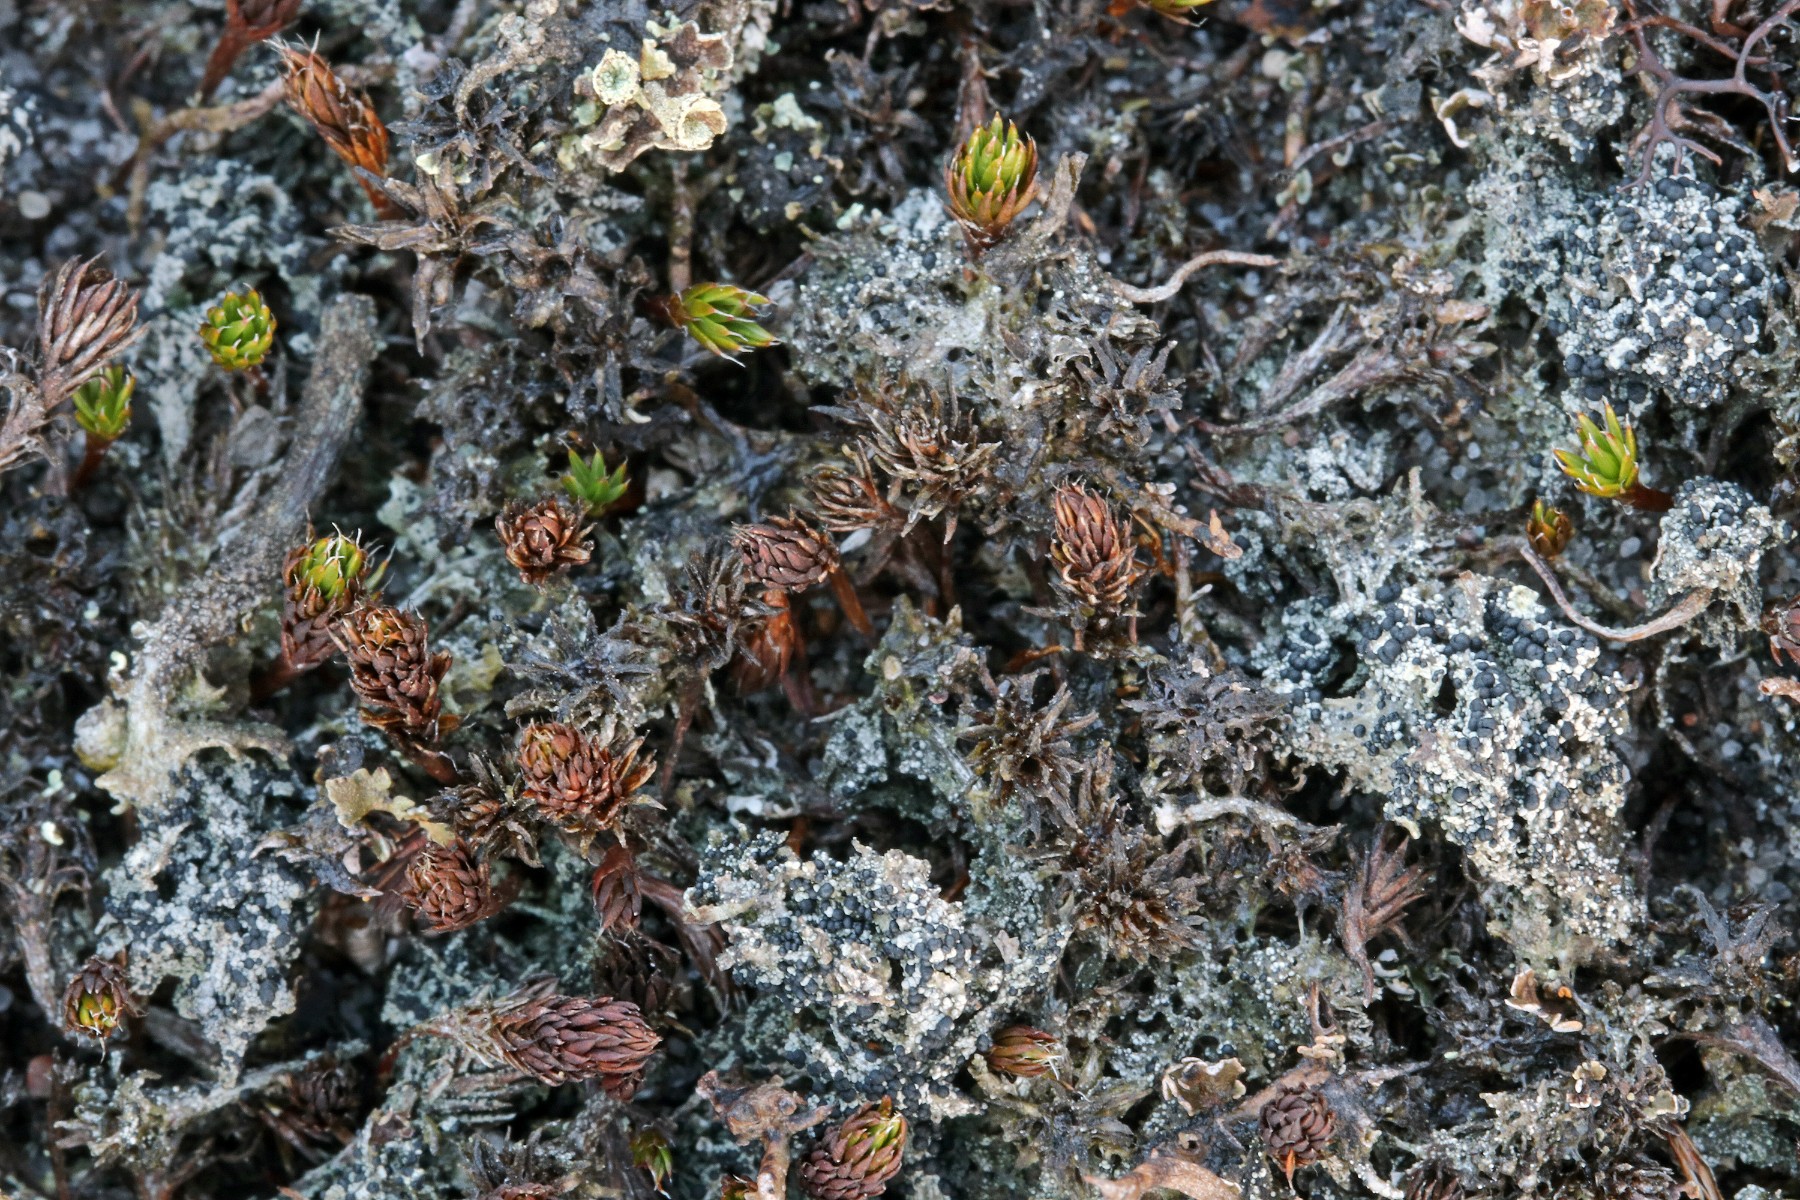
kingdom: Fungi
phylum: Ascomycota
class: Lecanoromycetes
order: Lecanorales
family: Byssolomataceae
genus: Micarea
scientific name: Micarea lignaria
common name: tørve-knaplav
